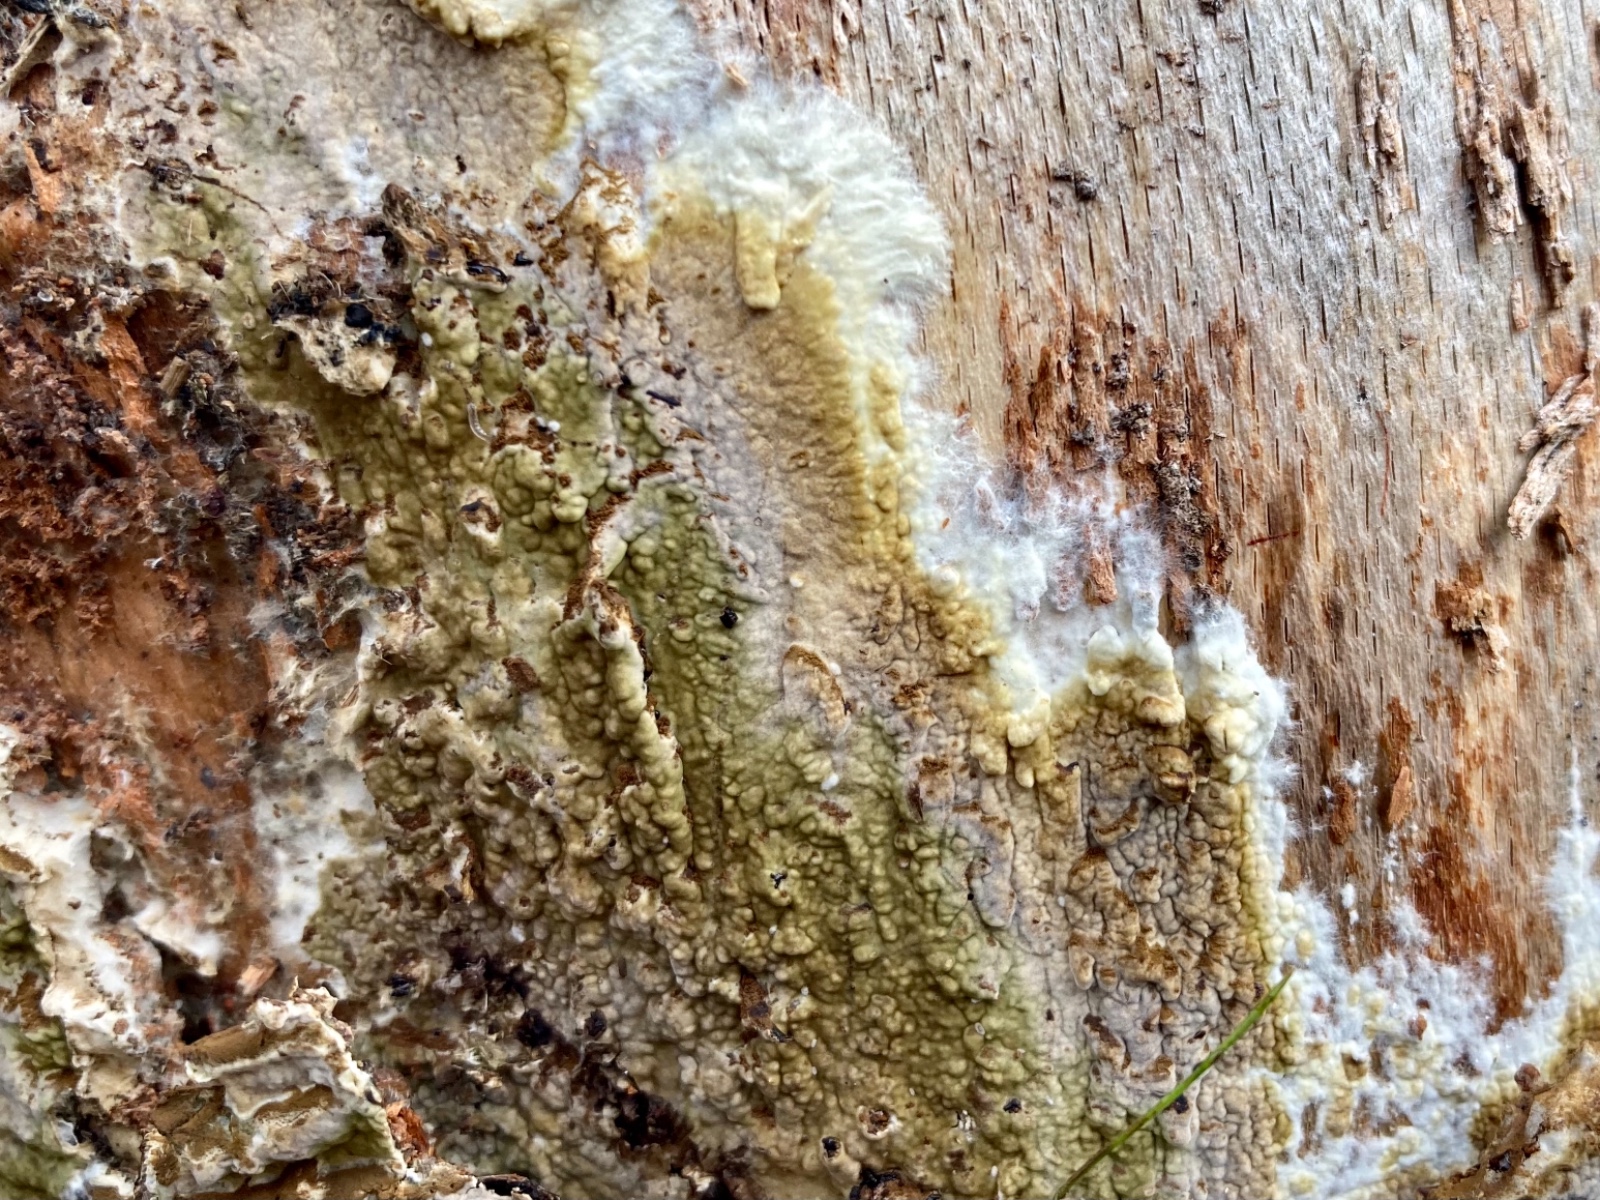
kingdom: Fungi
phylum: Basidiomycota
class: Agaricomycetes
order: Boletales
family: Coniophoraceae
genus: Coniophora
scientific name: Coniophora puteana
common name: gul tømmersvamp
